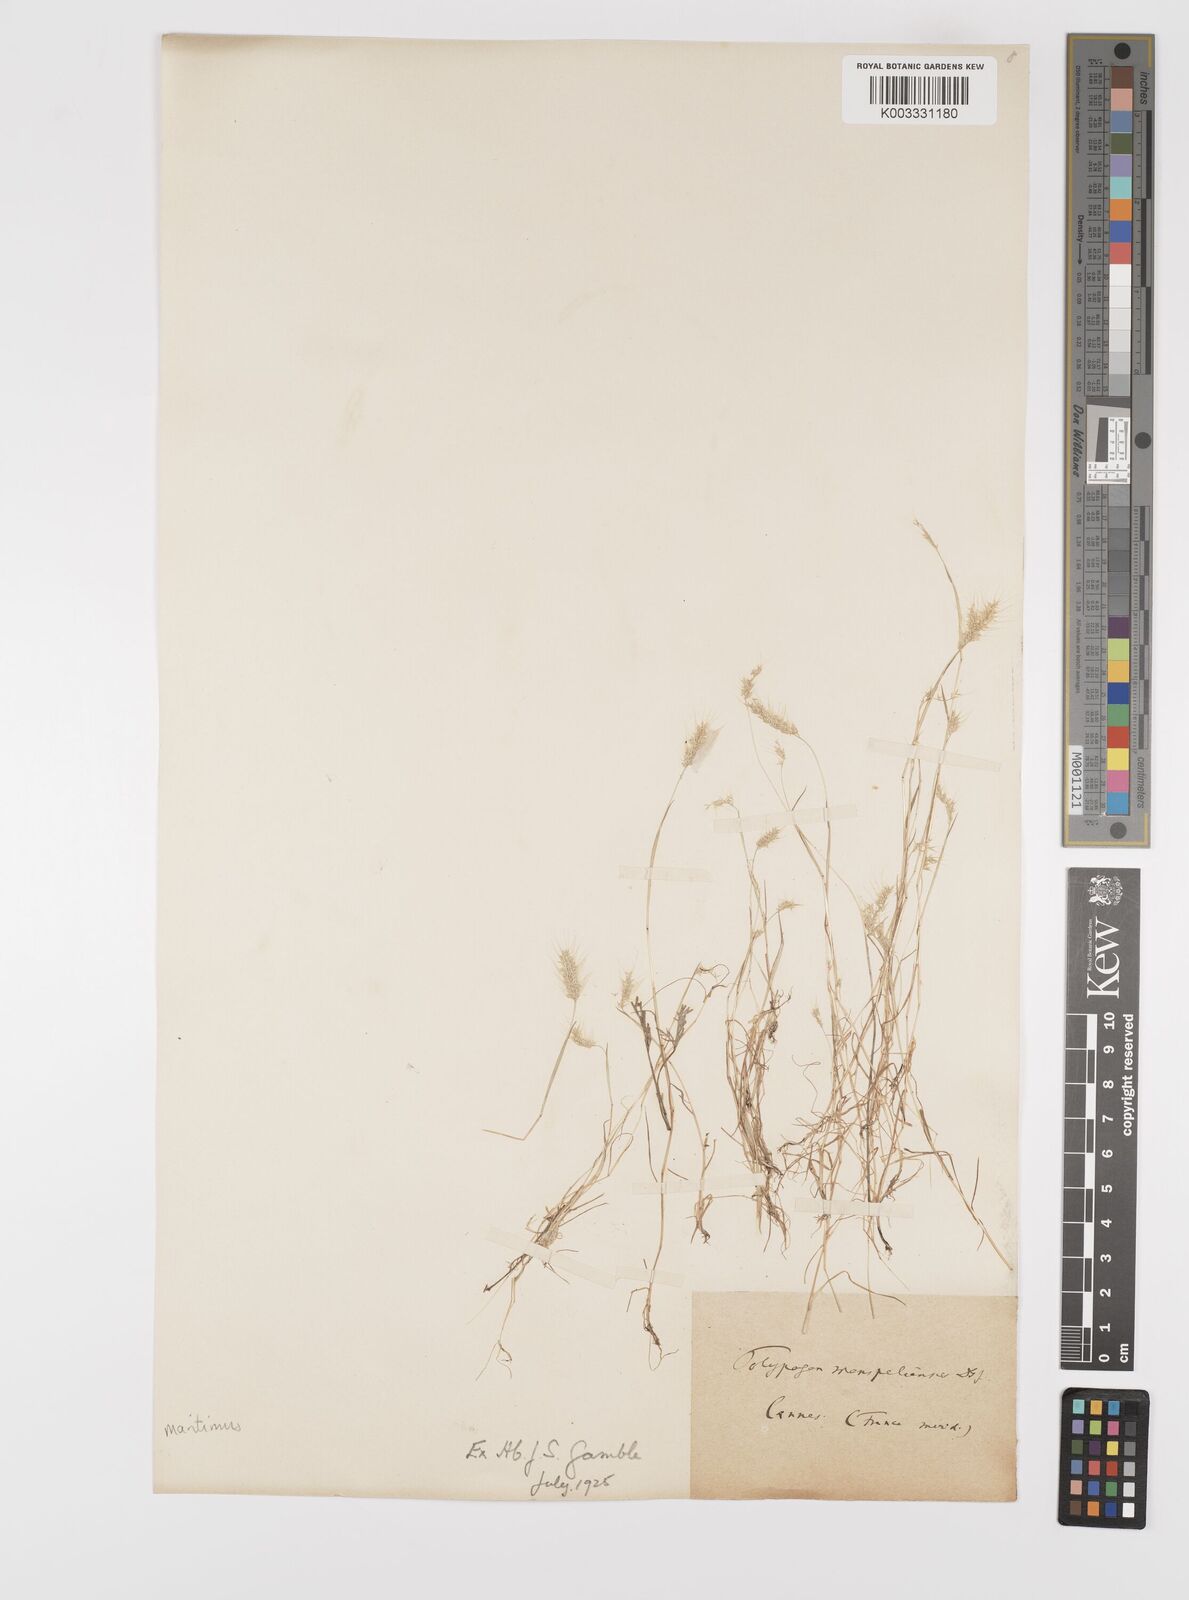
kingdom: Plantae
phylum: Tracheophyta
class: Liliopsida
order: Poales
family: Poaceae
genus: Polypogon
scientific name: Polypogon maritimus
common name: Mediterranean rabbitsfoot grass
